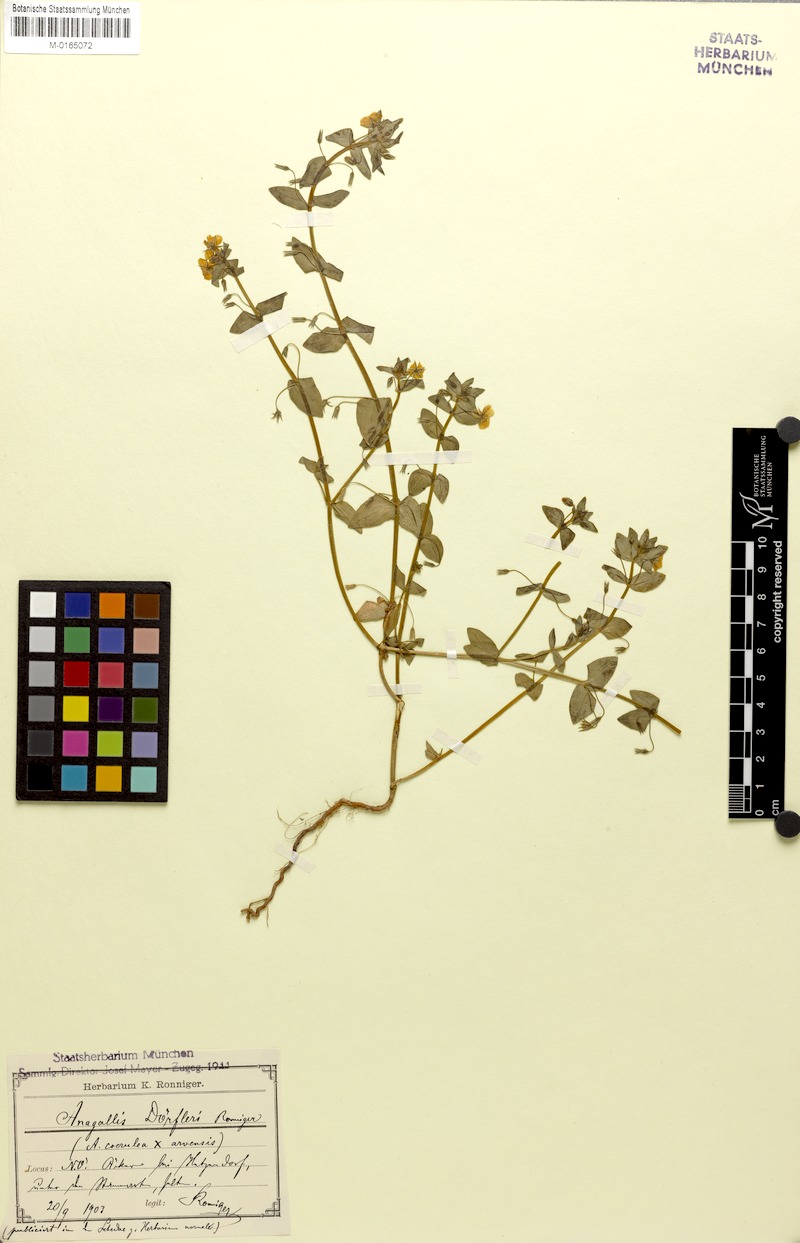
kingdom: Plantae
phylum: Tracheophyta
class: Magnoliopsida
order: Ericales
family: Primulaceae
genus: Lysimachia
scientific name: Lysimachia foemina
